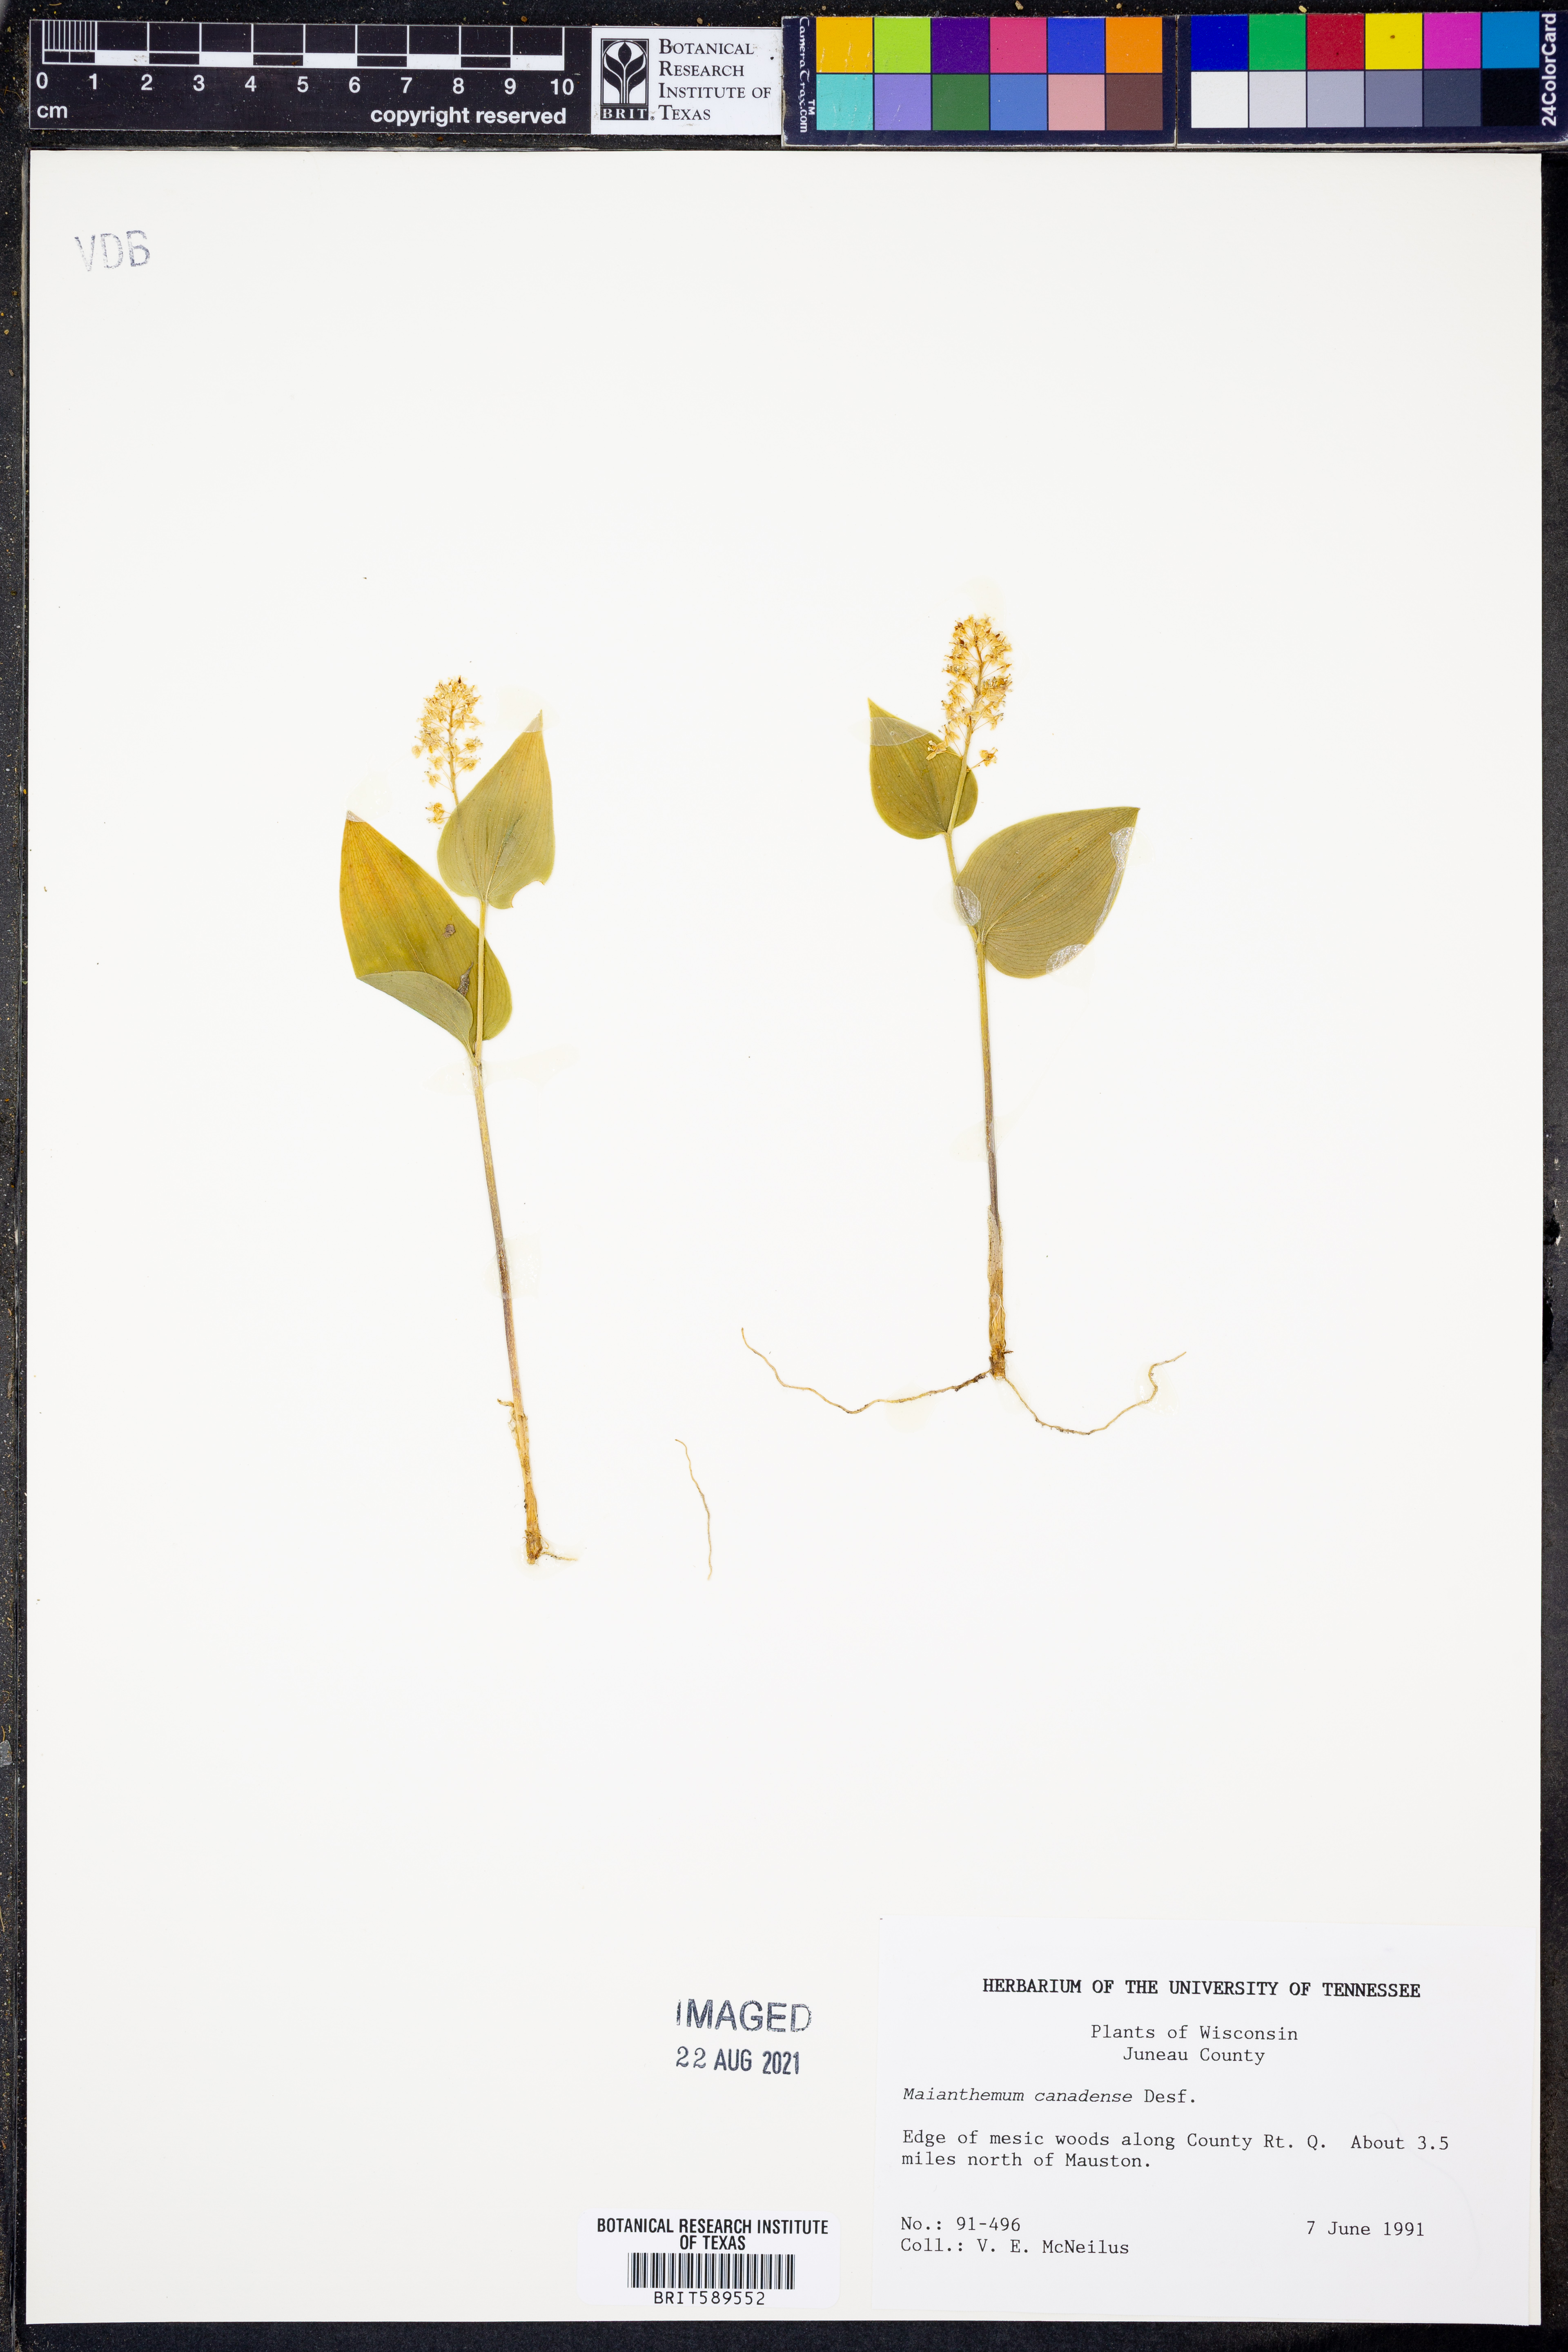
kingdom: Plantae
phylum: Tracheophyta
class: Liliopsida
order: Asparagales
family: Asparagaceae
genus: Maianthemum
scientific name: Maianthemum canadense
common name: False lily-of-the-valley
